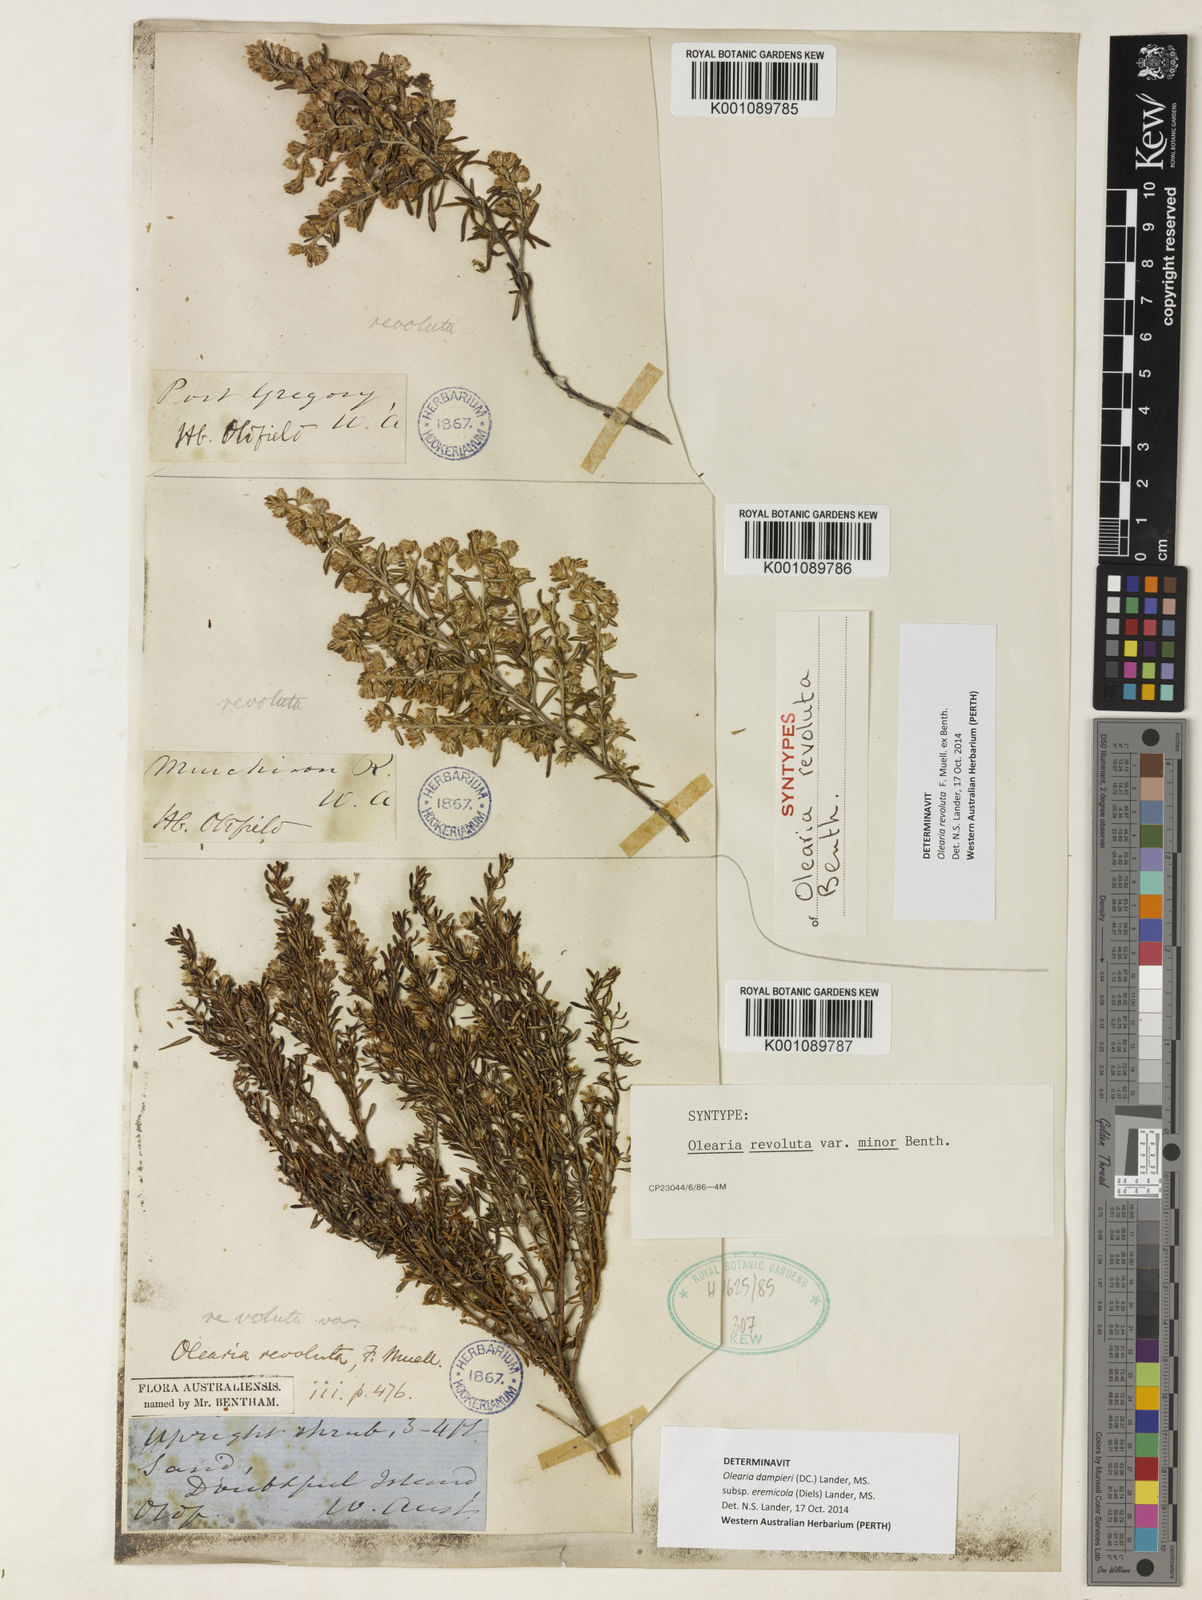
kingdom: Plantae
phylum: Tracheophyta
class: Magnoliopsida
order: Asterales
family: Asteraceae
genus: Olearia
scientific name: Olearia
